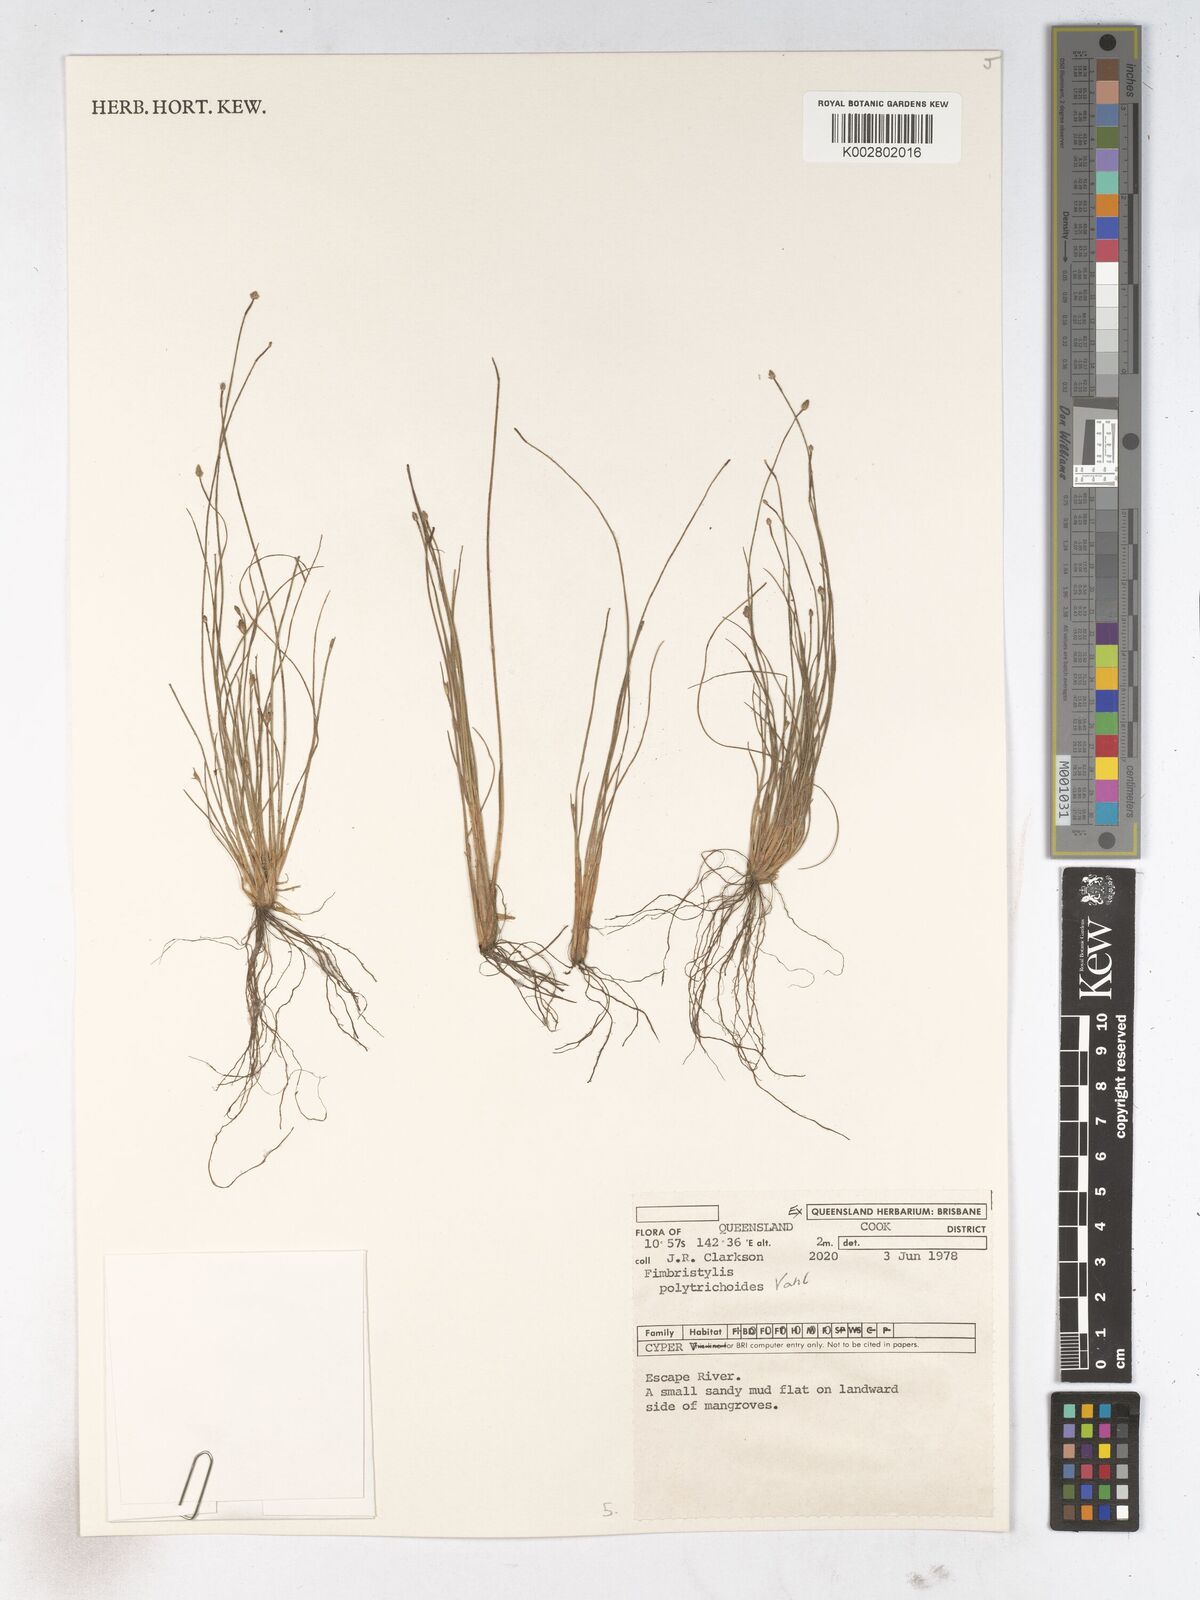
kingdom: Plantae
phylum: Tracheophyta
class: Liliopsida
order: Poales
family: Cyperaceae
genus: Fimbristylis
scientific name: Fimbristylis polytrichoides
